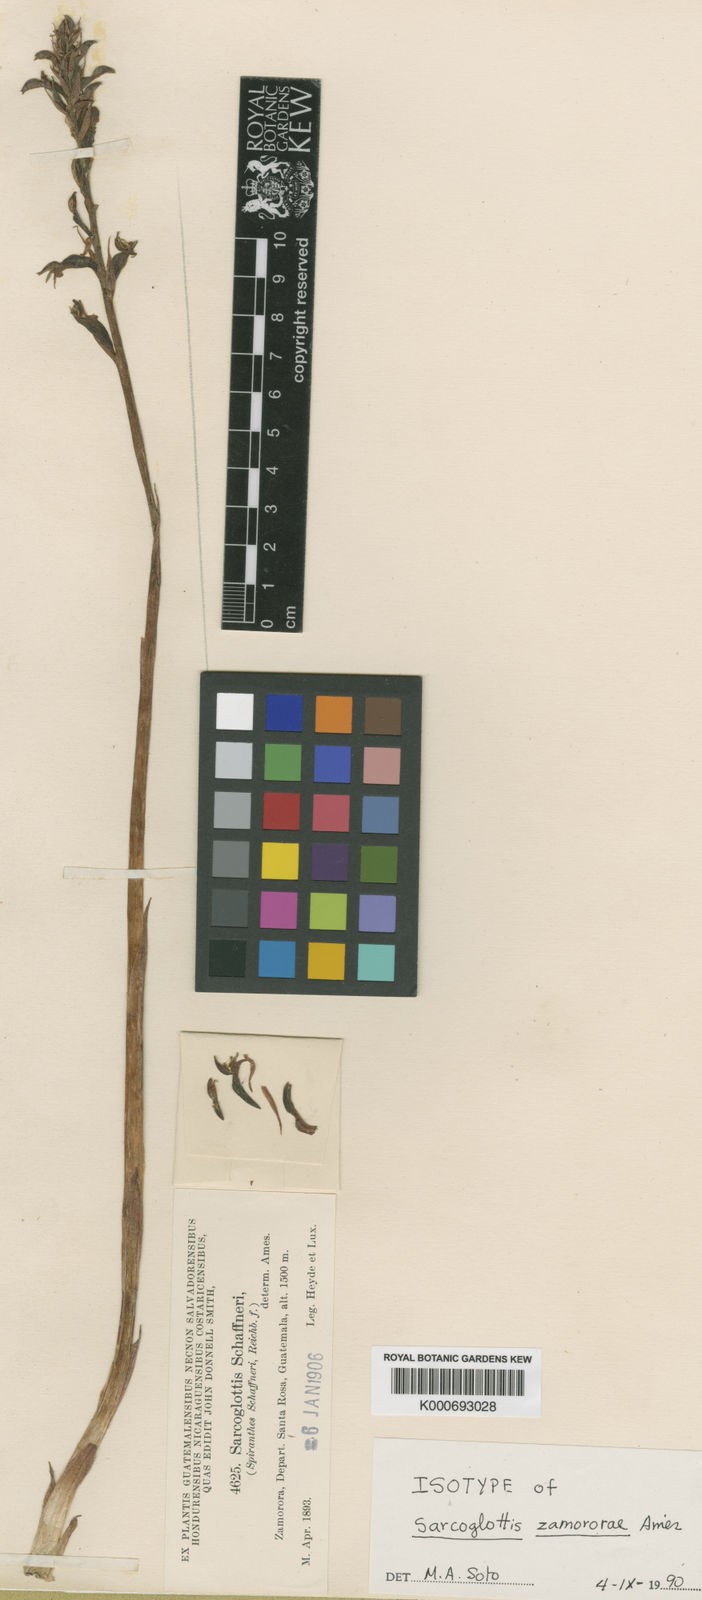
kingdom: Plantae
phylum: Tracheophyta
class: Liliopsida
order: Asparagales
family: Orchidaceae
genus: Sarcoglottis
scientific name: Sarcoglottis schaffneri
